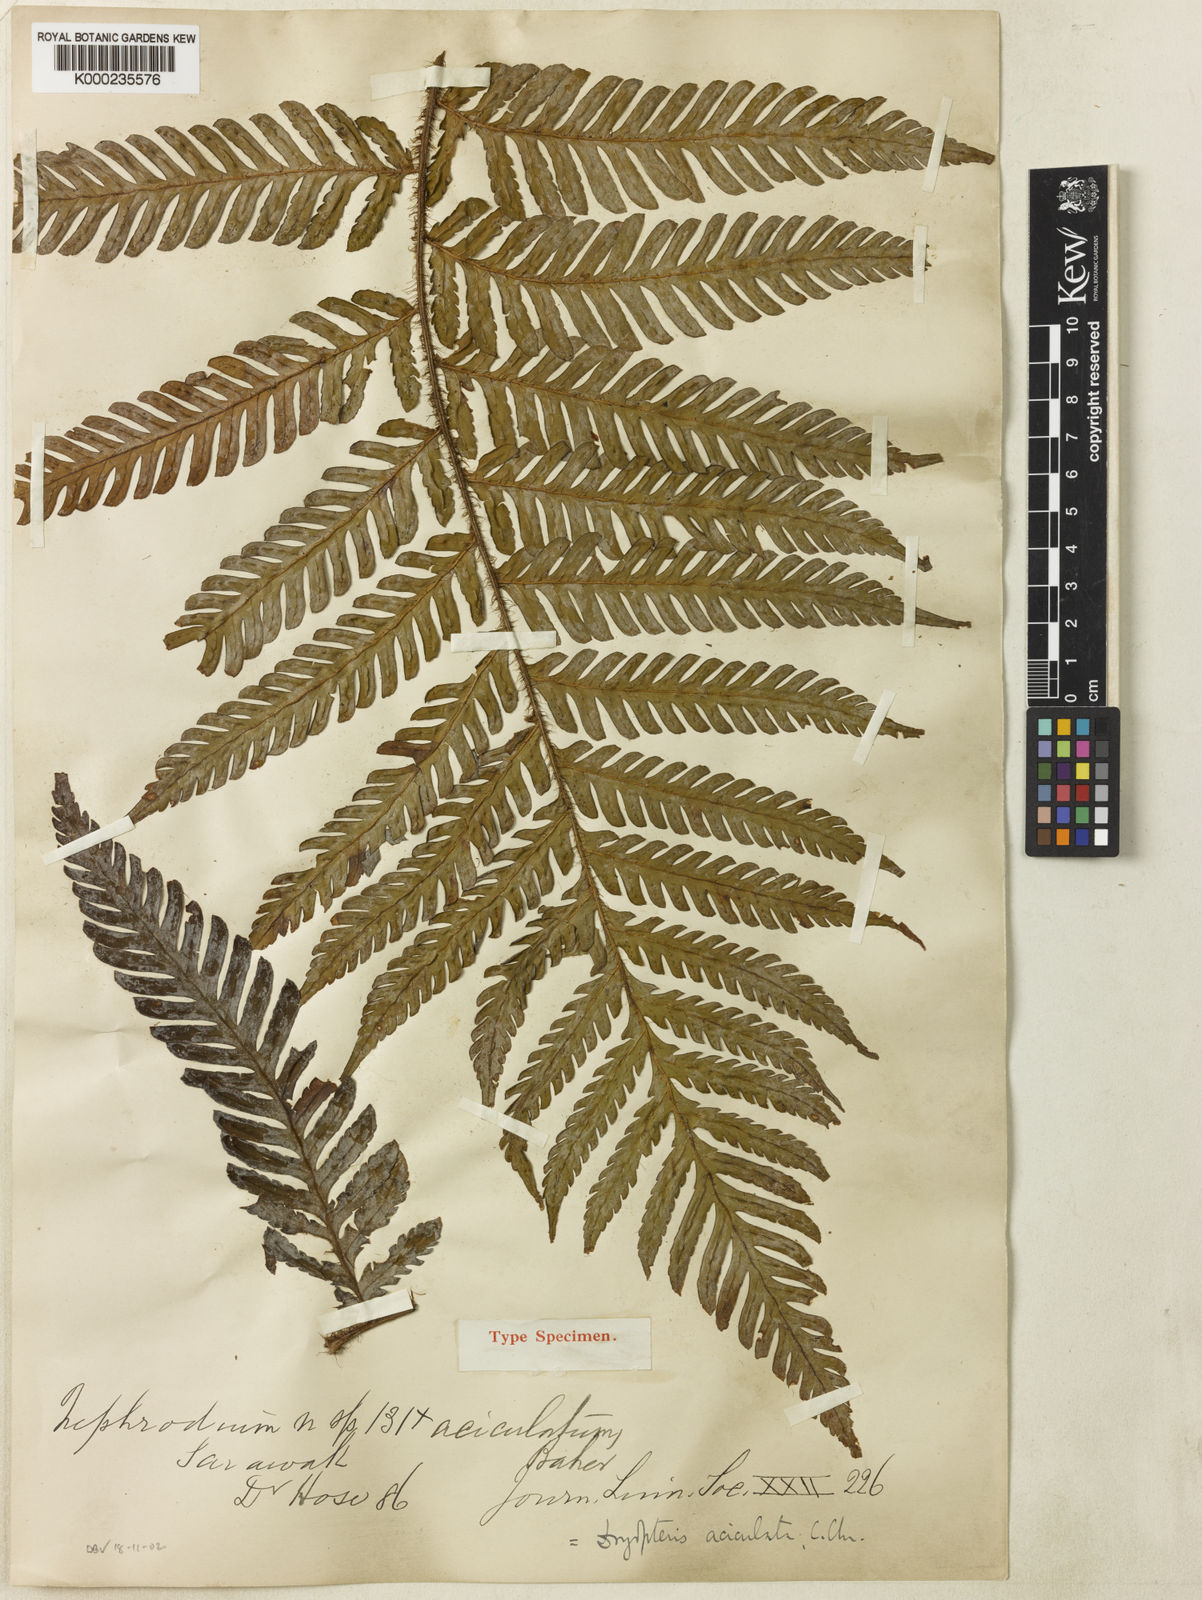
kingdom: Plantae
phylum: Tracheophyta
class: Polypodiopsida
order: Polypodiales
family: Dryopteridaceae
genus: Ctenitis
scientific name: Ctenitis aciculata
